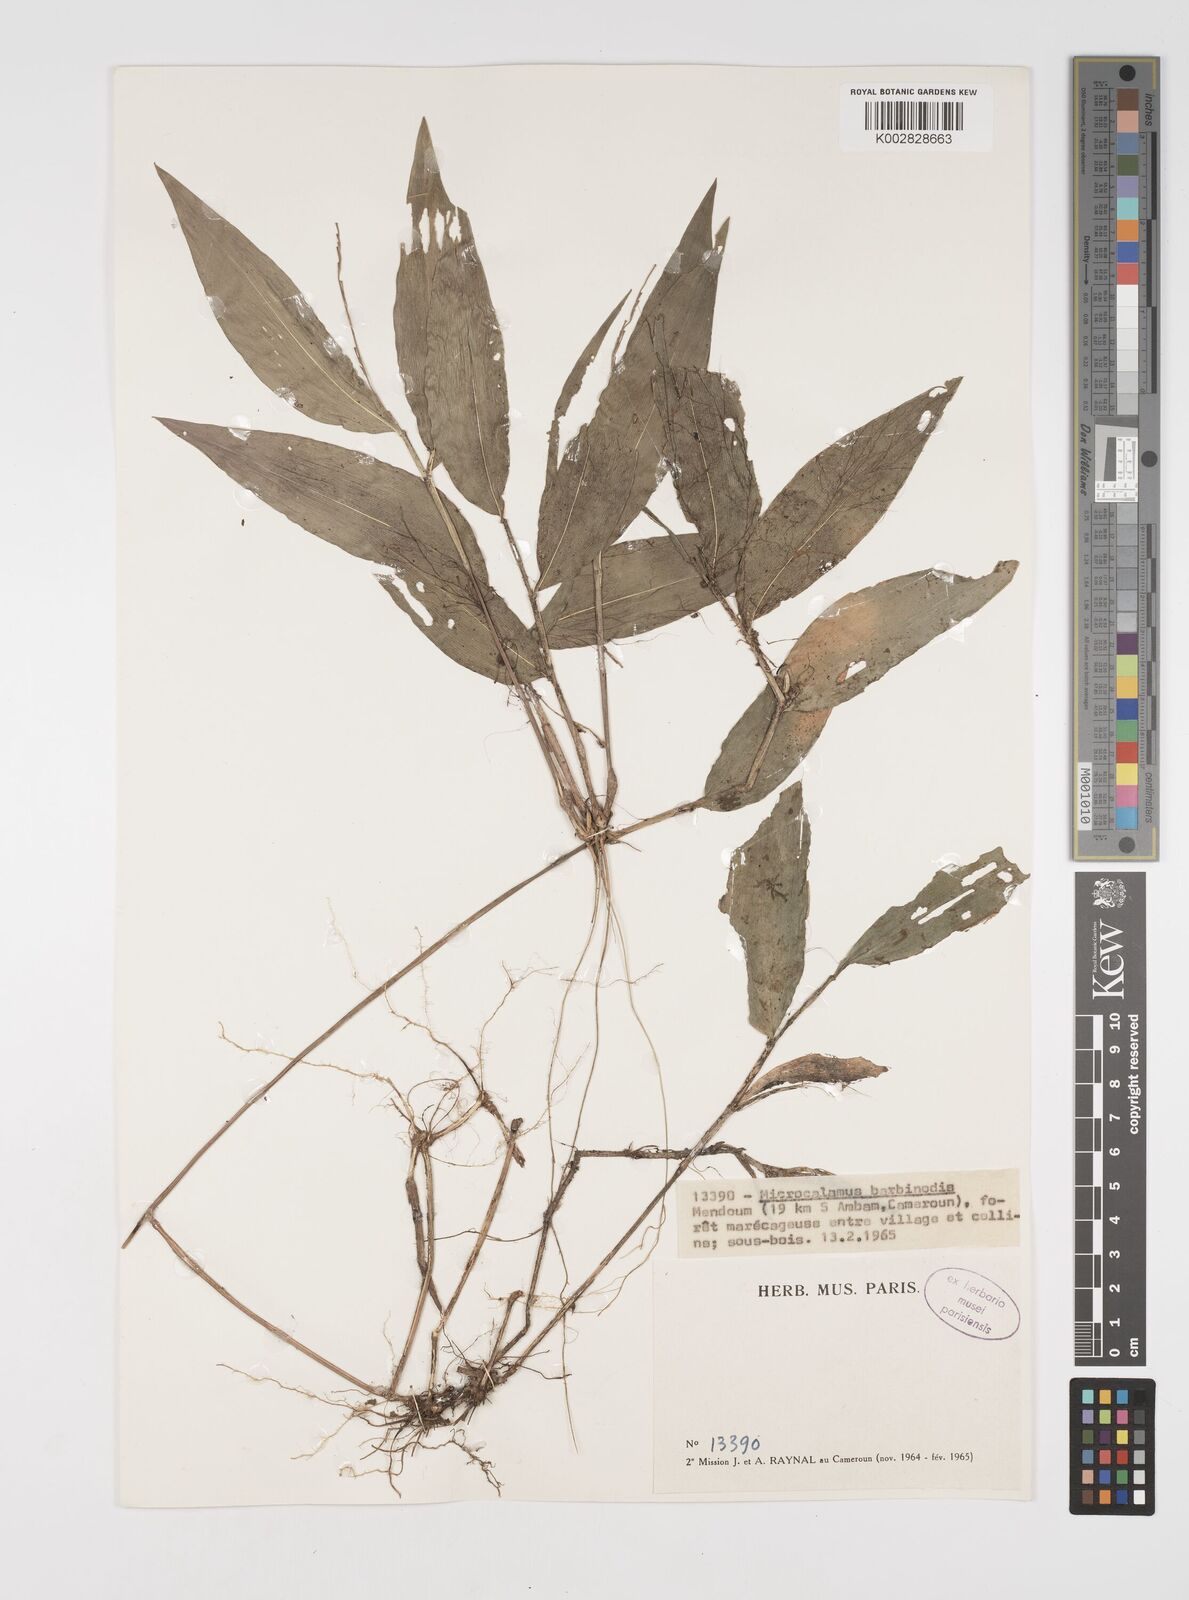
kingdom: Plantae
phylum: Tracheophyta
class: Liliopsida
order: Poales
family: Poaceae
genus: Microcalamus
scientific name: Microcalamus barbinodis
